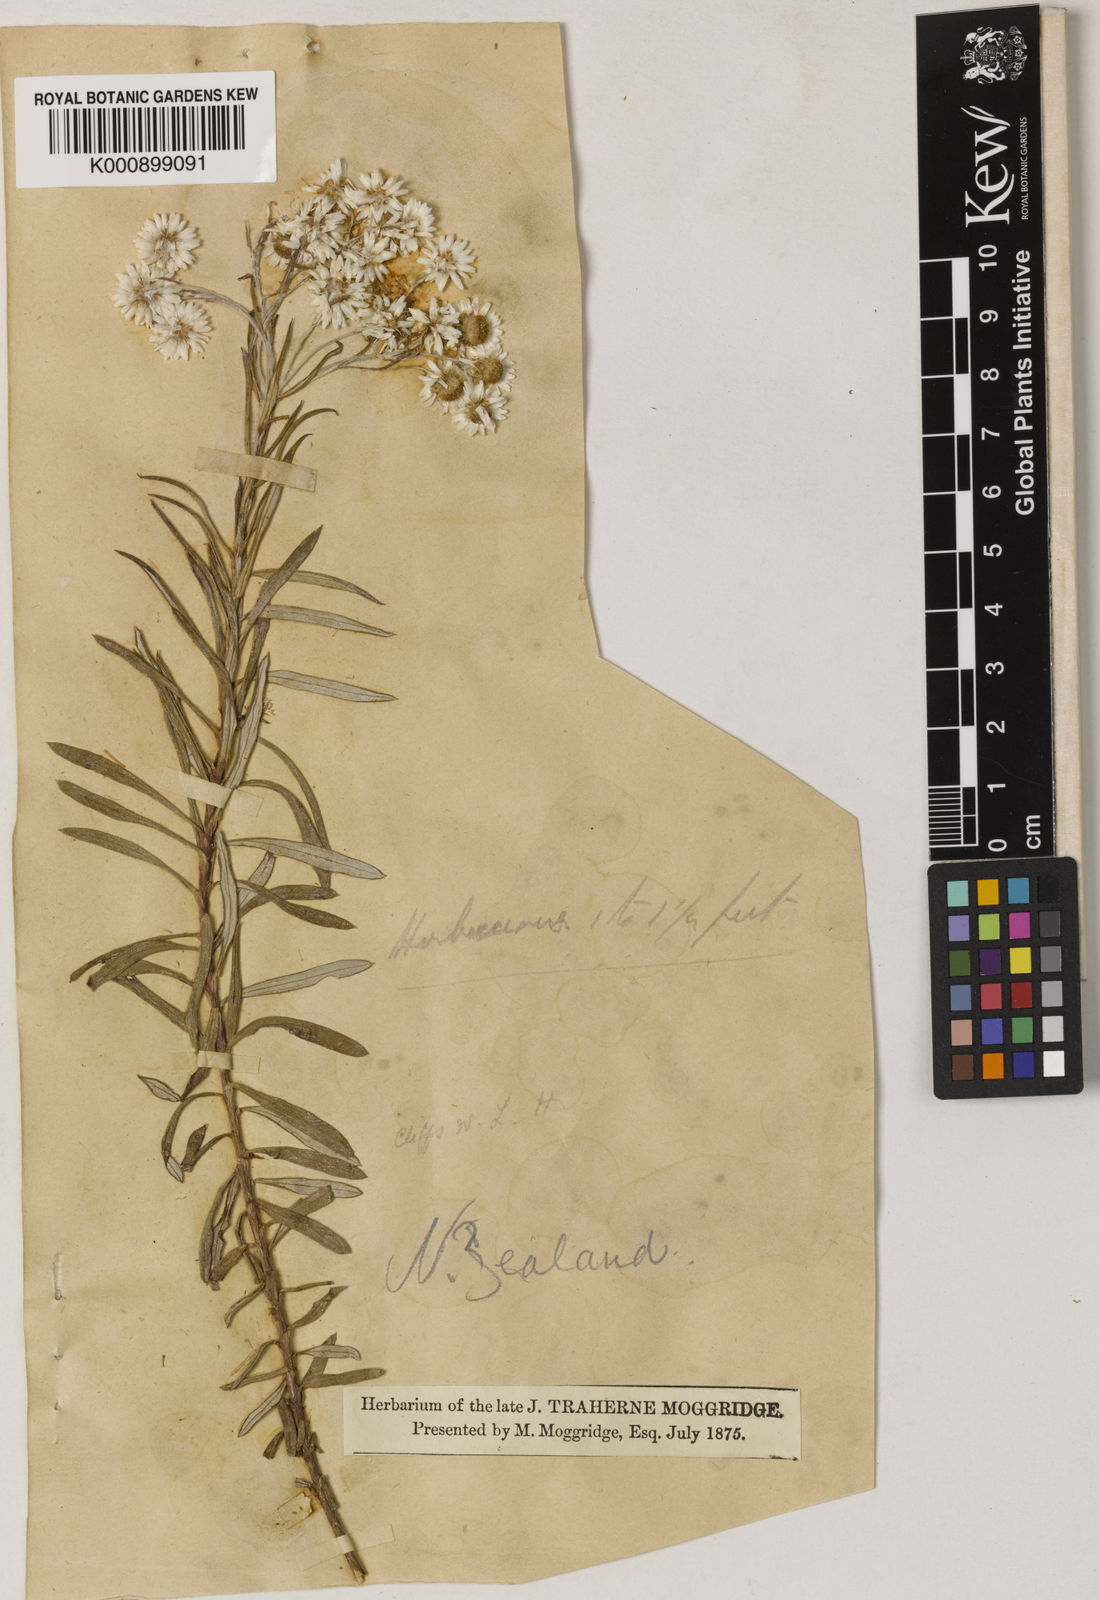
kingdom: Plantae
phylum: Tracheophyta
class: Magnoliopsida
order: Asterales
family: Asteraceae
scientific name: Asteraceae
